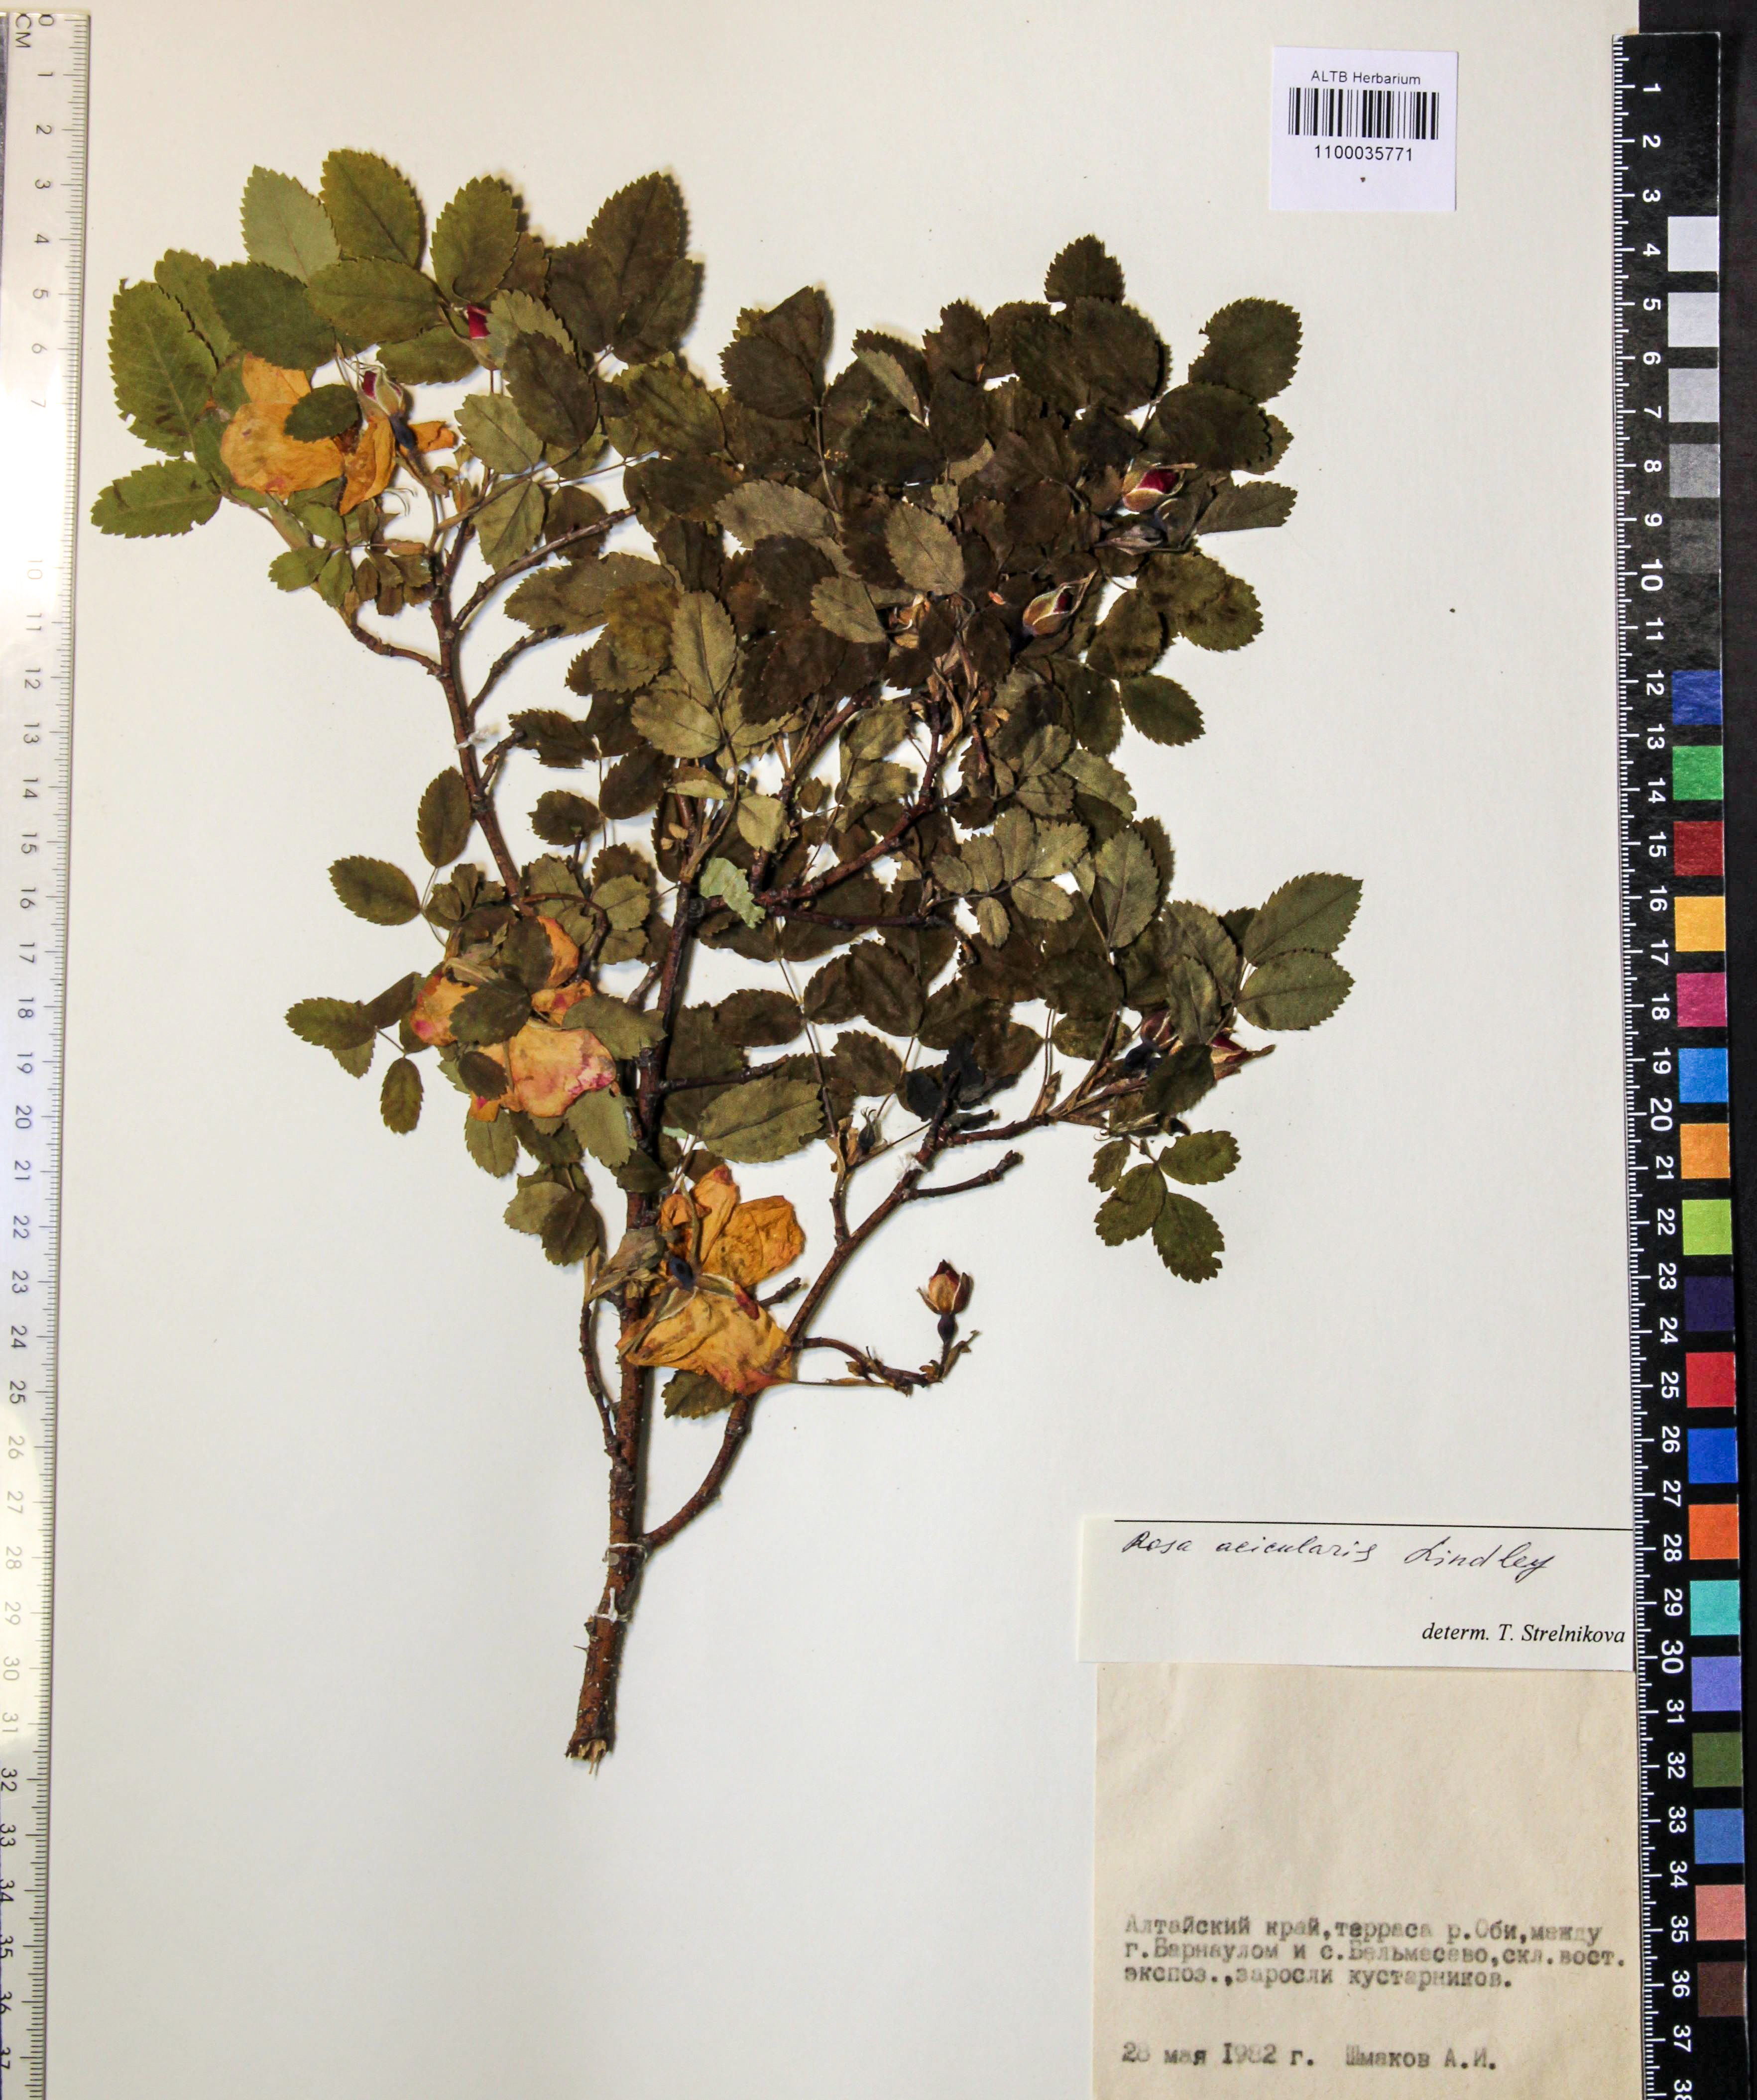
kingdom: Plantae
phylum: Tracheophyta
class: Magnoliopsida
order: Rosales
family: Rosaceae
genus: Rosa
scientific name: Rosa acicularis
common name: Prickly rose
